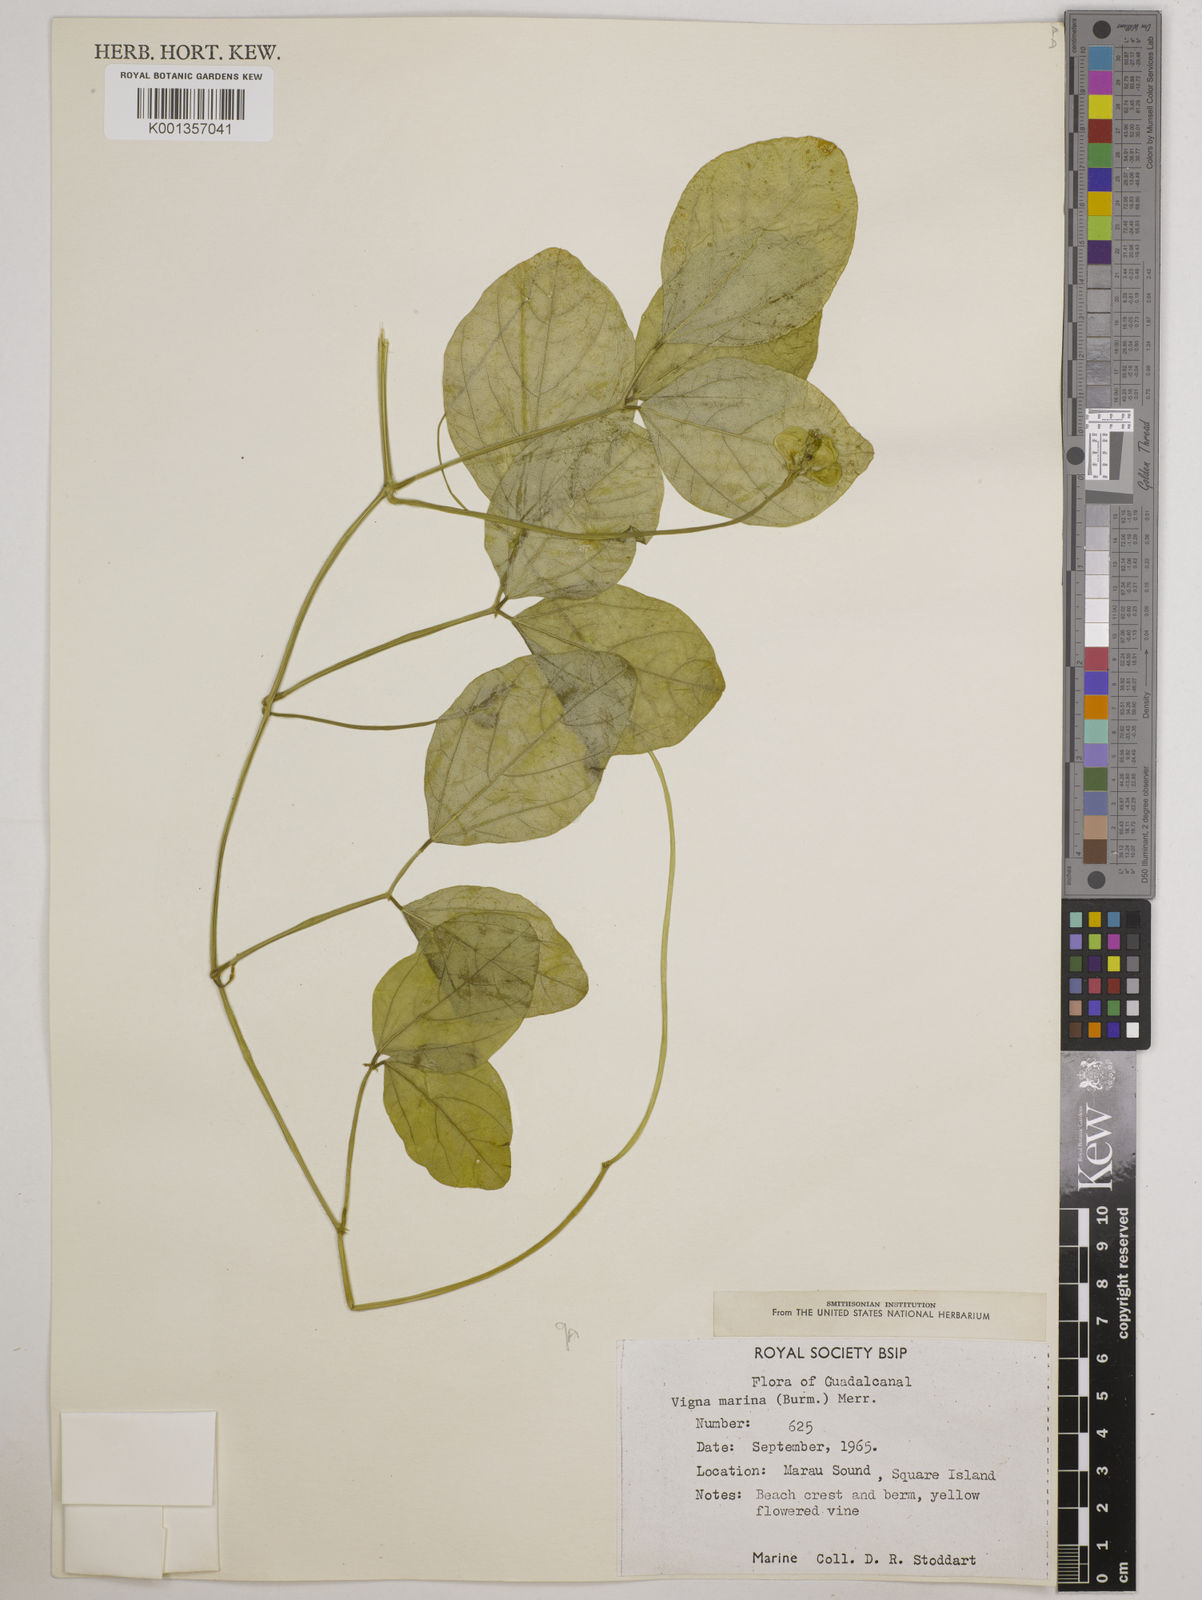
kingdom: Plantae
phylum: Tracheophyta
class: Magnoliopsida
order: Fabales
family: Fabaceae
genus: Vigna
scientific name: Vigna marina
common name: Dune-bean
